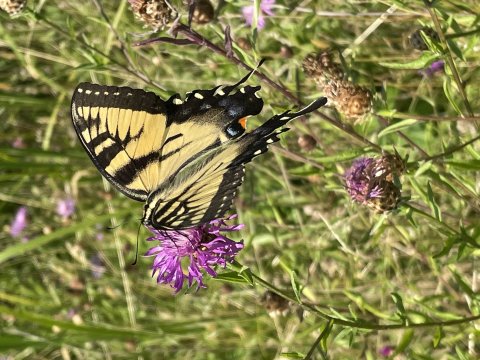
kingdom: Animalia
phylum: Arthropoda
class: Insecta
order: Lepidoptera
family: Papilionidae
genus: Pterourus
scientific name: Pterourus
